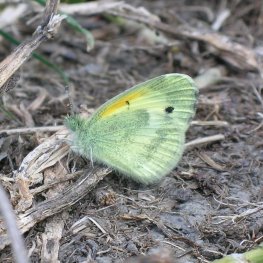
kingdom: Animalia
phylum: Arthropoda
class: Insecta
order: Lepidoptera
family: Pieridae
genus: Nathalis
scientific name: Nathalis iole
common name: Dainty Sulphur
